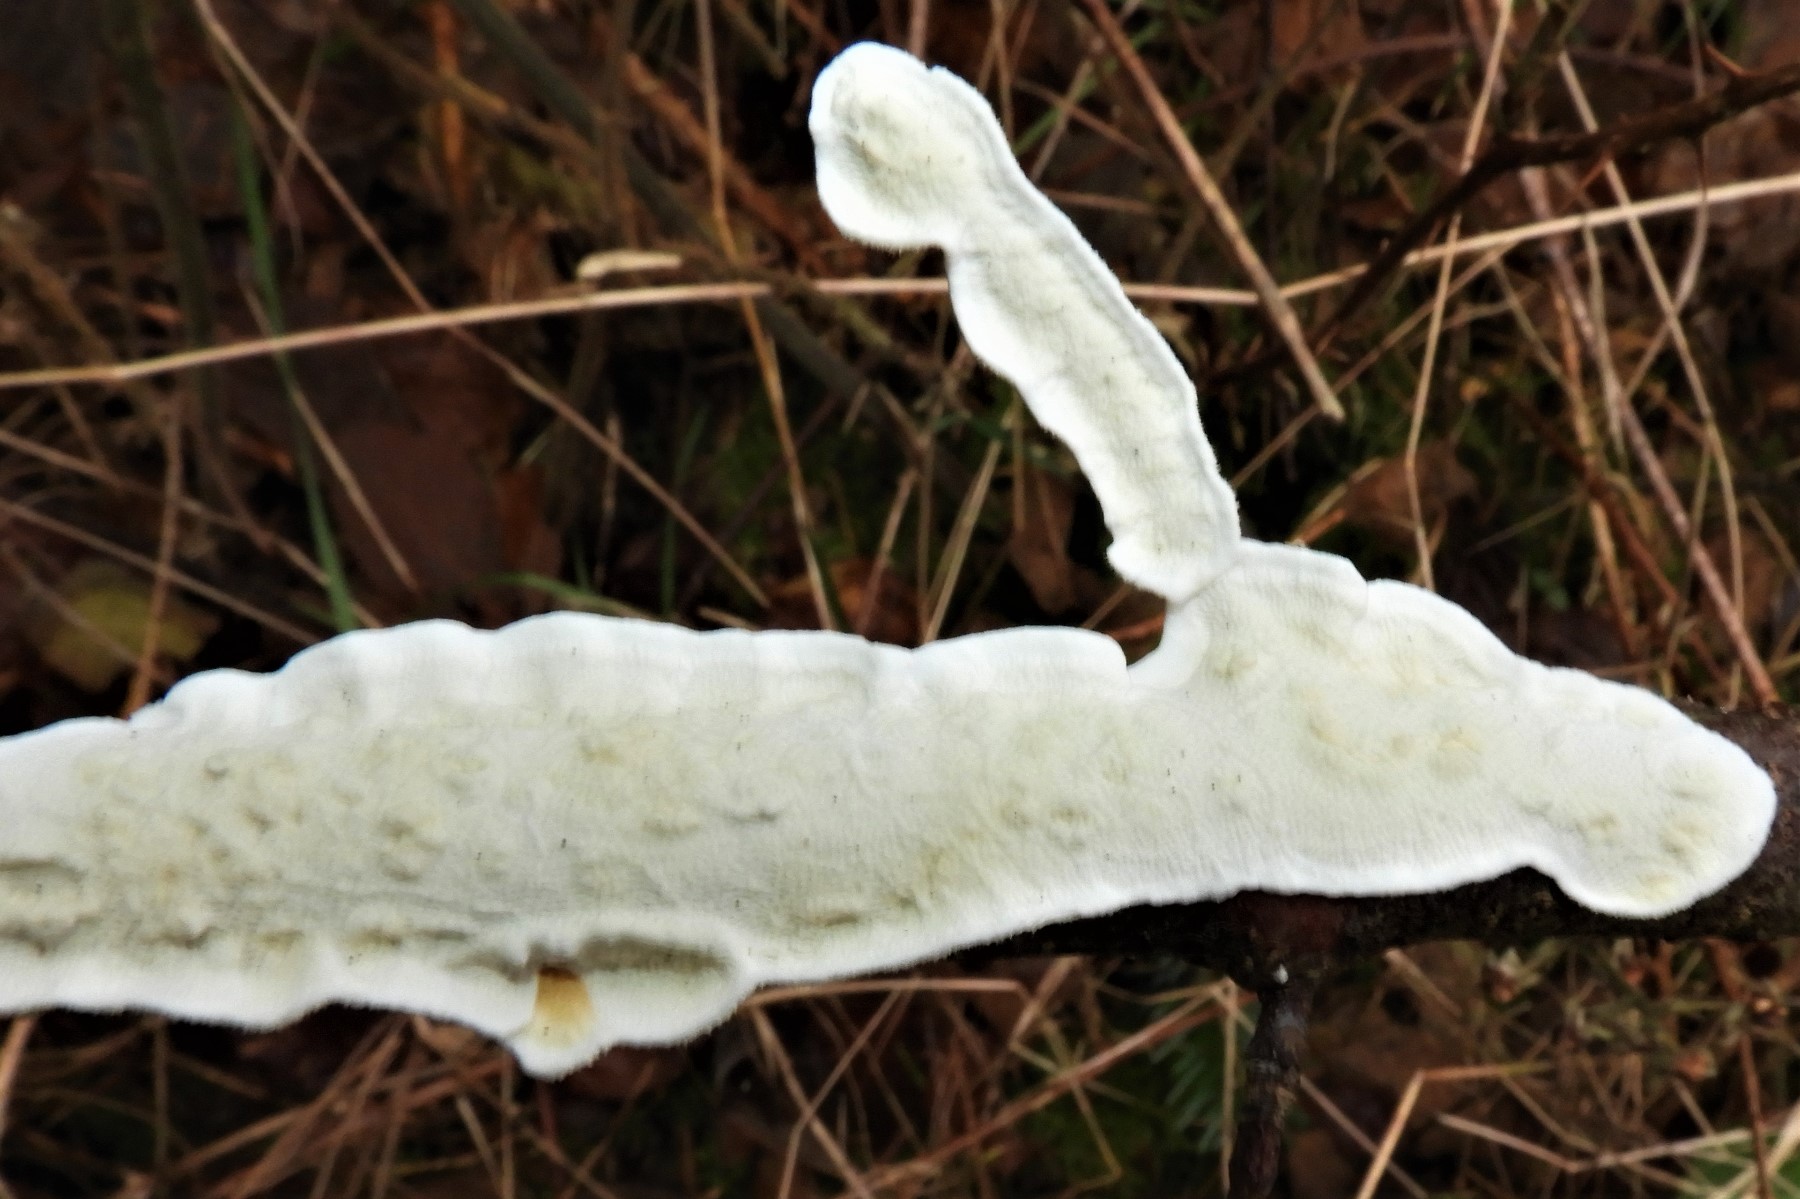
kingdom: Fungi
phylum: Basidiomycota
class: Agaricomycetes
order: Polyporales
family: Irpicaceae
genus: Byssomerulius
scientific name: Byssomerulius corium
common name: læder-åresvamp
